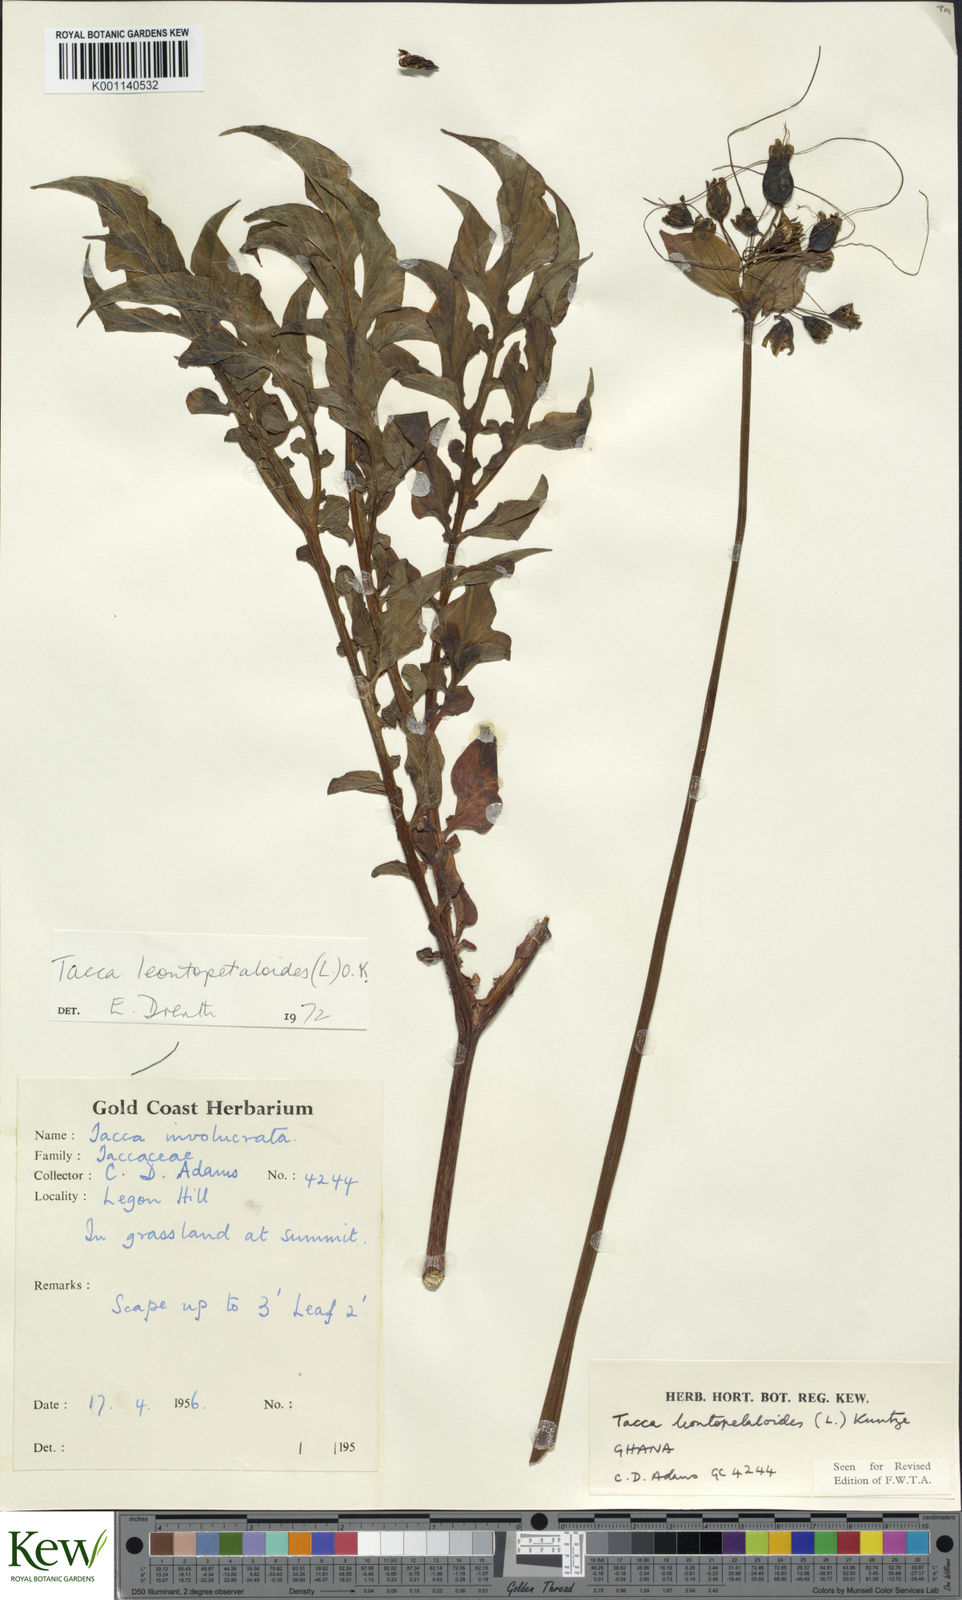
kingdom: Plantae
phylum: Tracheophyta
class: Liliopsida
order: Dioscoreales
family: Dioscoreaceae
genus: Tacca
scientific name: Tacca leontopetaloides
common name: Arrowroot
